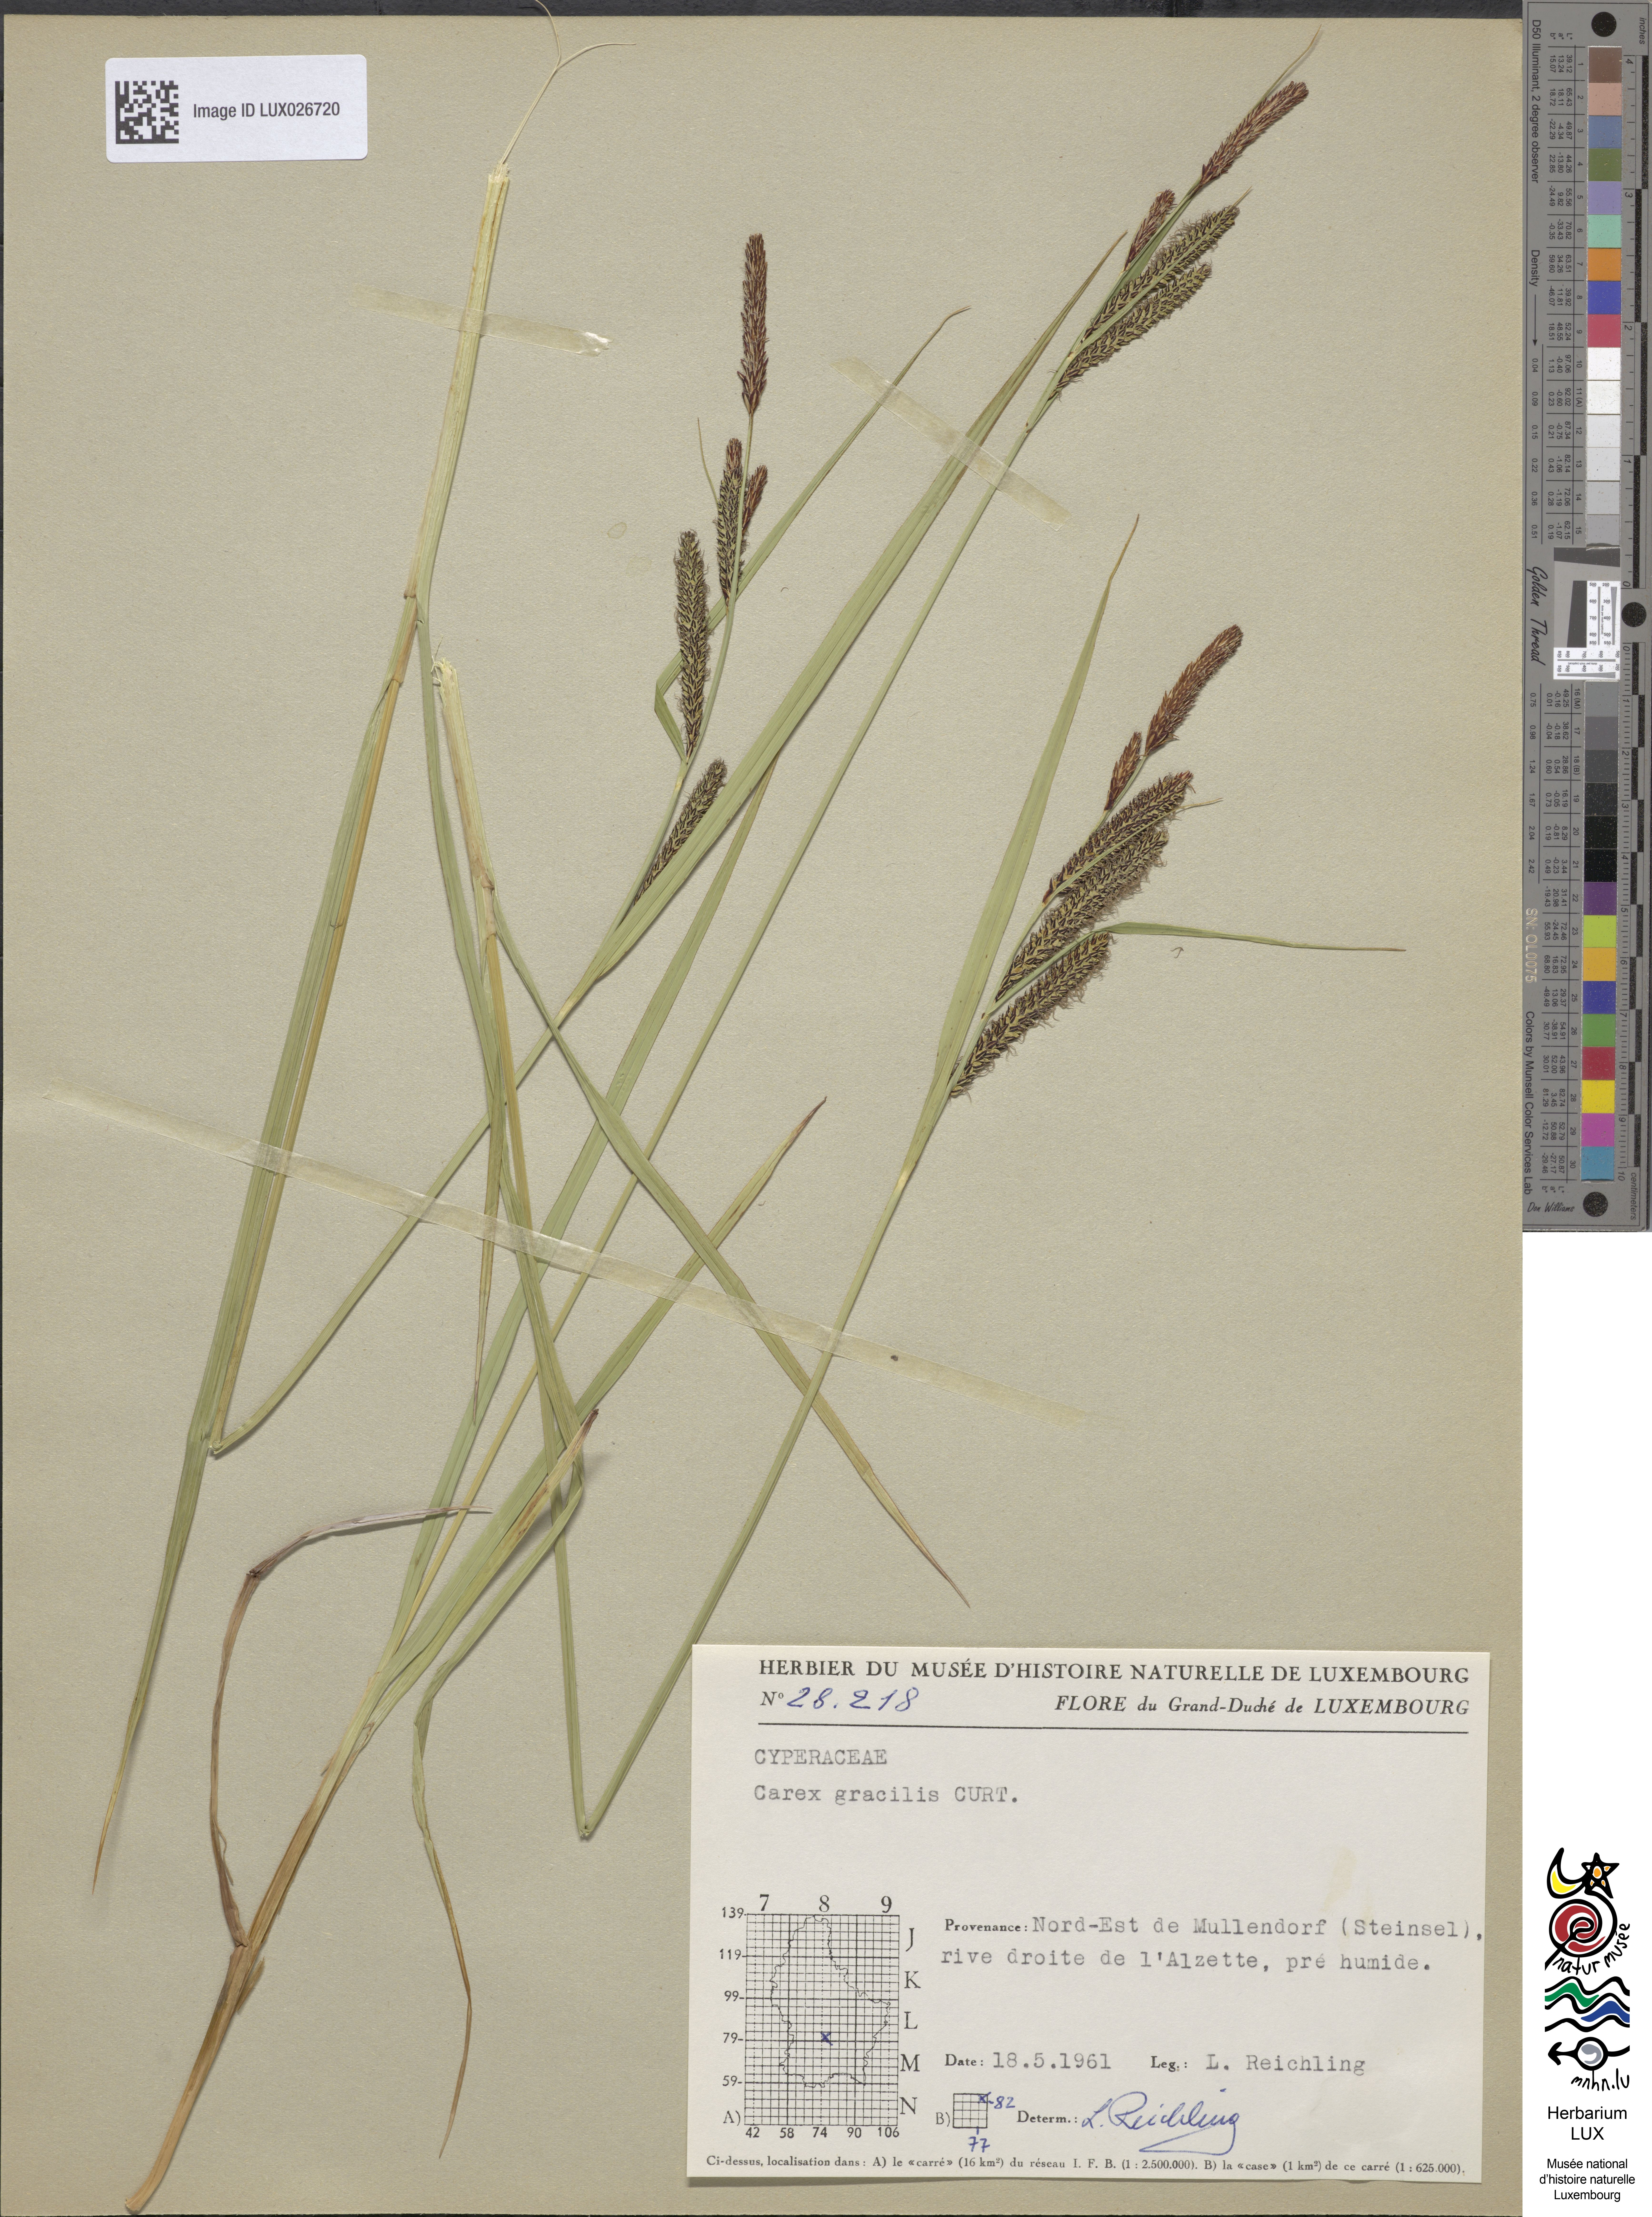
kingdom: Plantae
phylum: Tracheophyta
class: Liliopsida
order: Poales
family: Cyperaceae
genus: Carex
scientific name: Carex acuta
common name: Slender tufted-sedge
